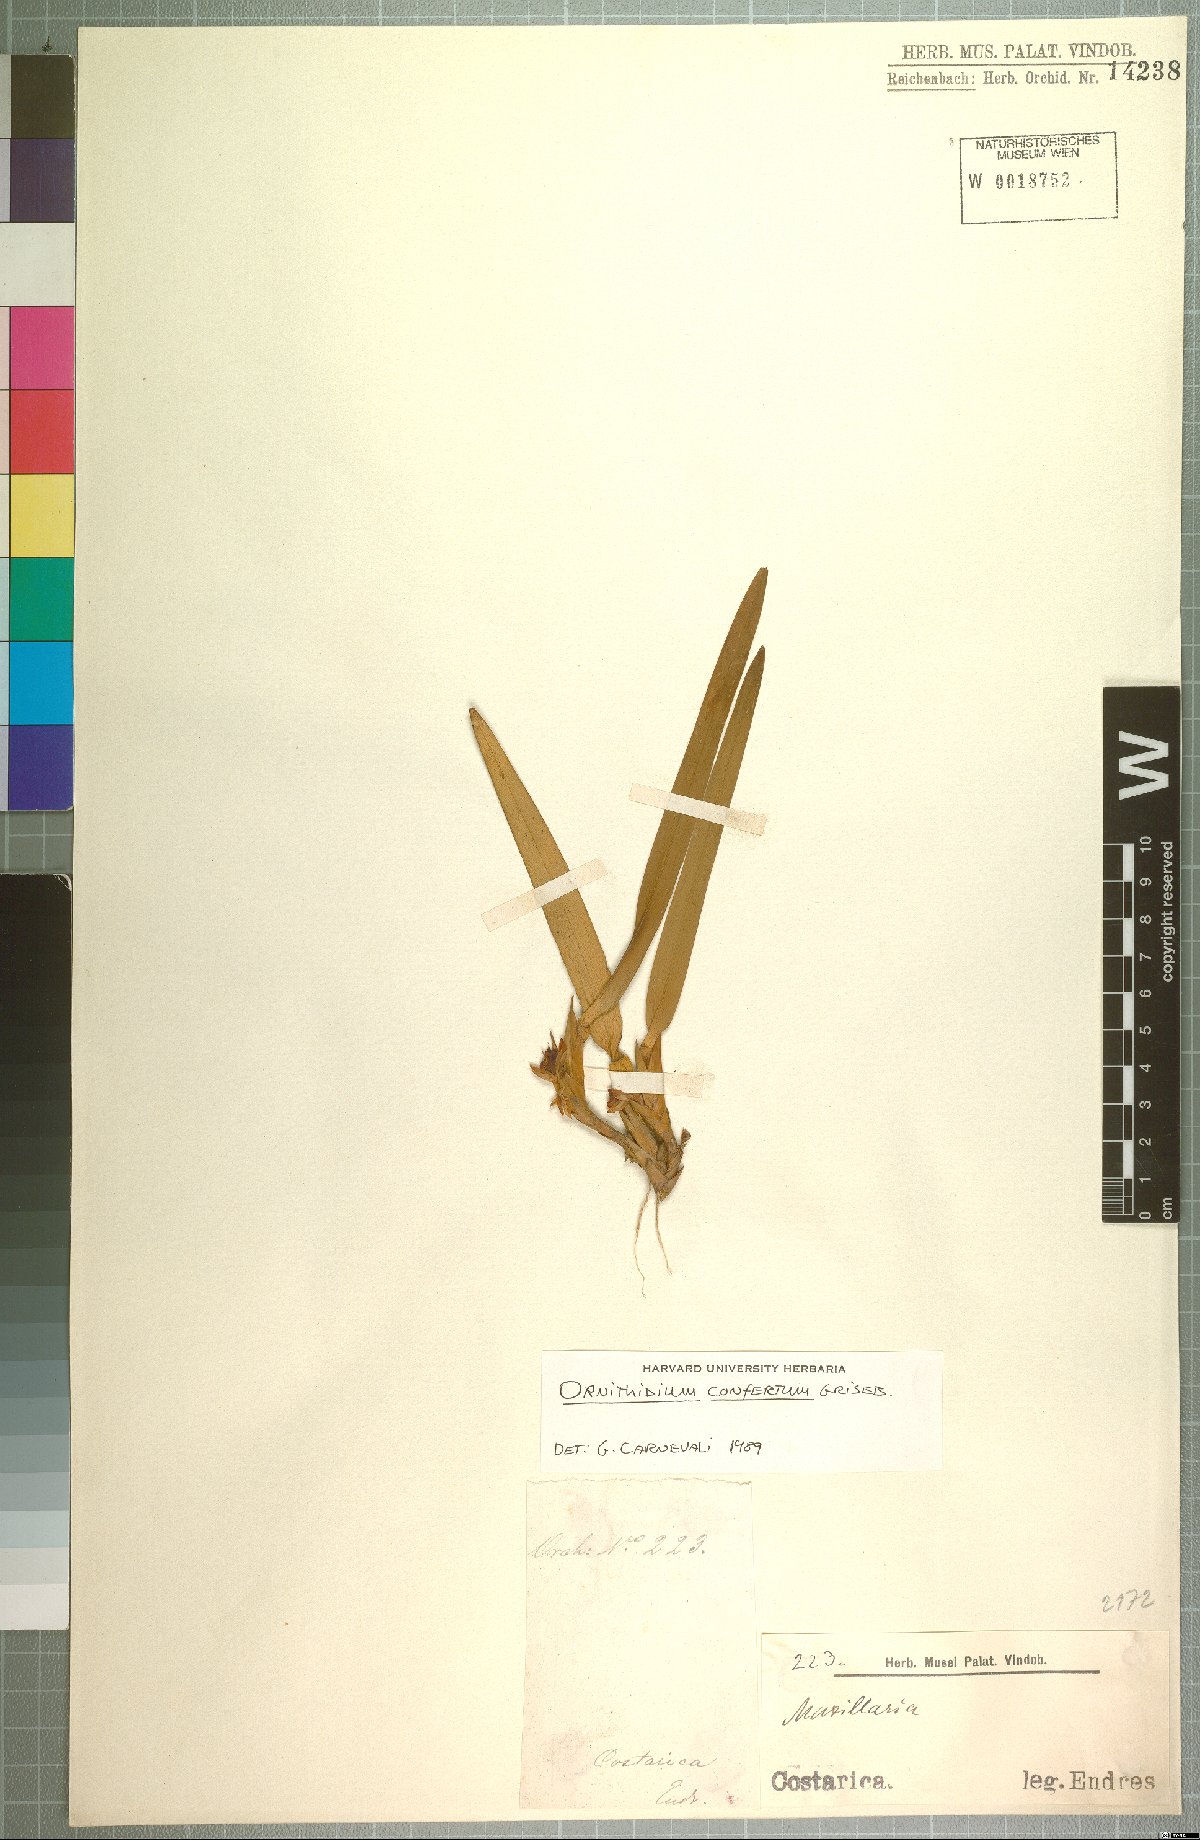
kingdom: Plantae
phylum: Tracheophyta
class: Liliopsida
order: Asparagales
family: Orchidaceae
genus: Maxillaria
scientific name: Maxillaria parviflora
